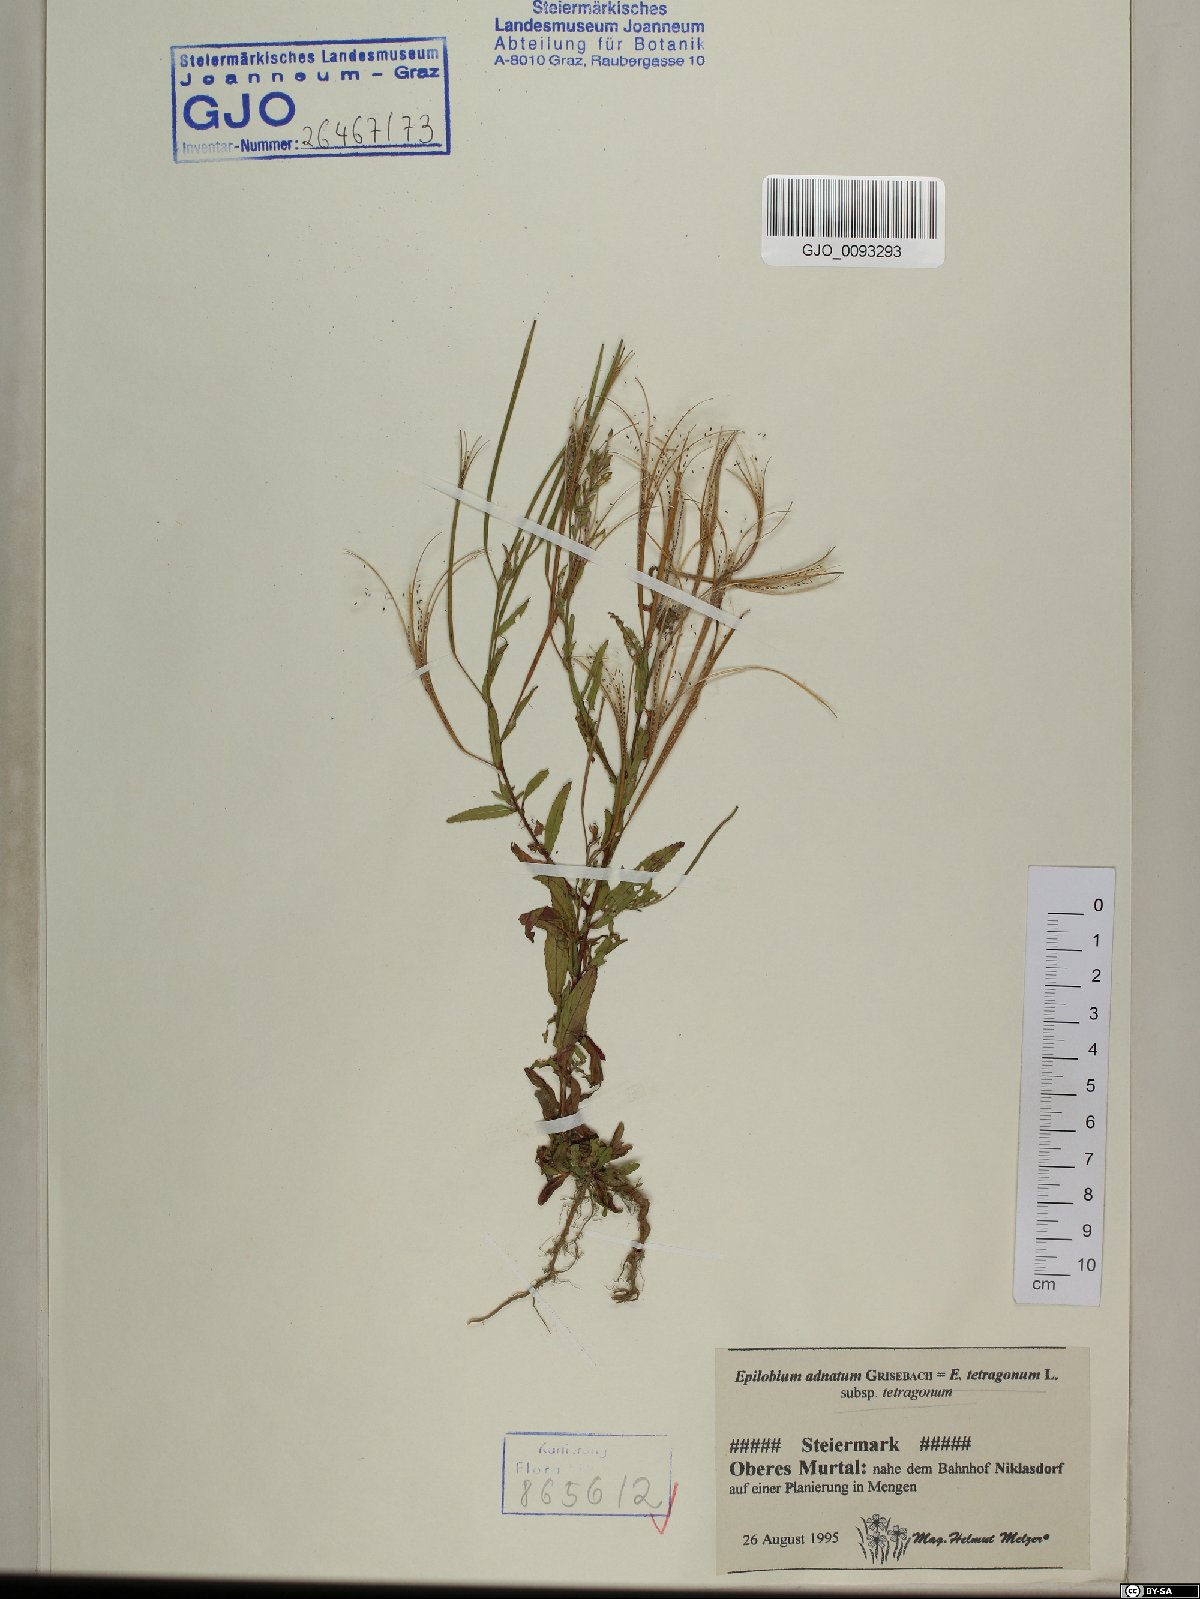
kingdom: Plantae
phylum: Tracheophyta
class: Magnoliopsida
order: Myrtales
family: Onagraceae
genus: Epilobium
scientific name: Epilobium tetragonum
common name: Square-stemmed willowherb
